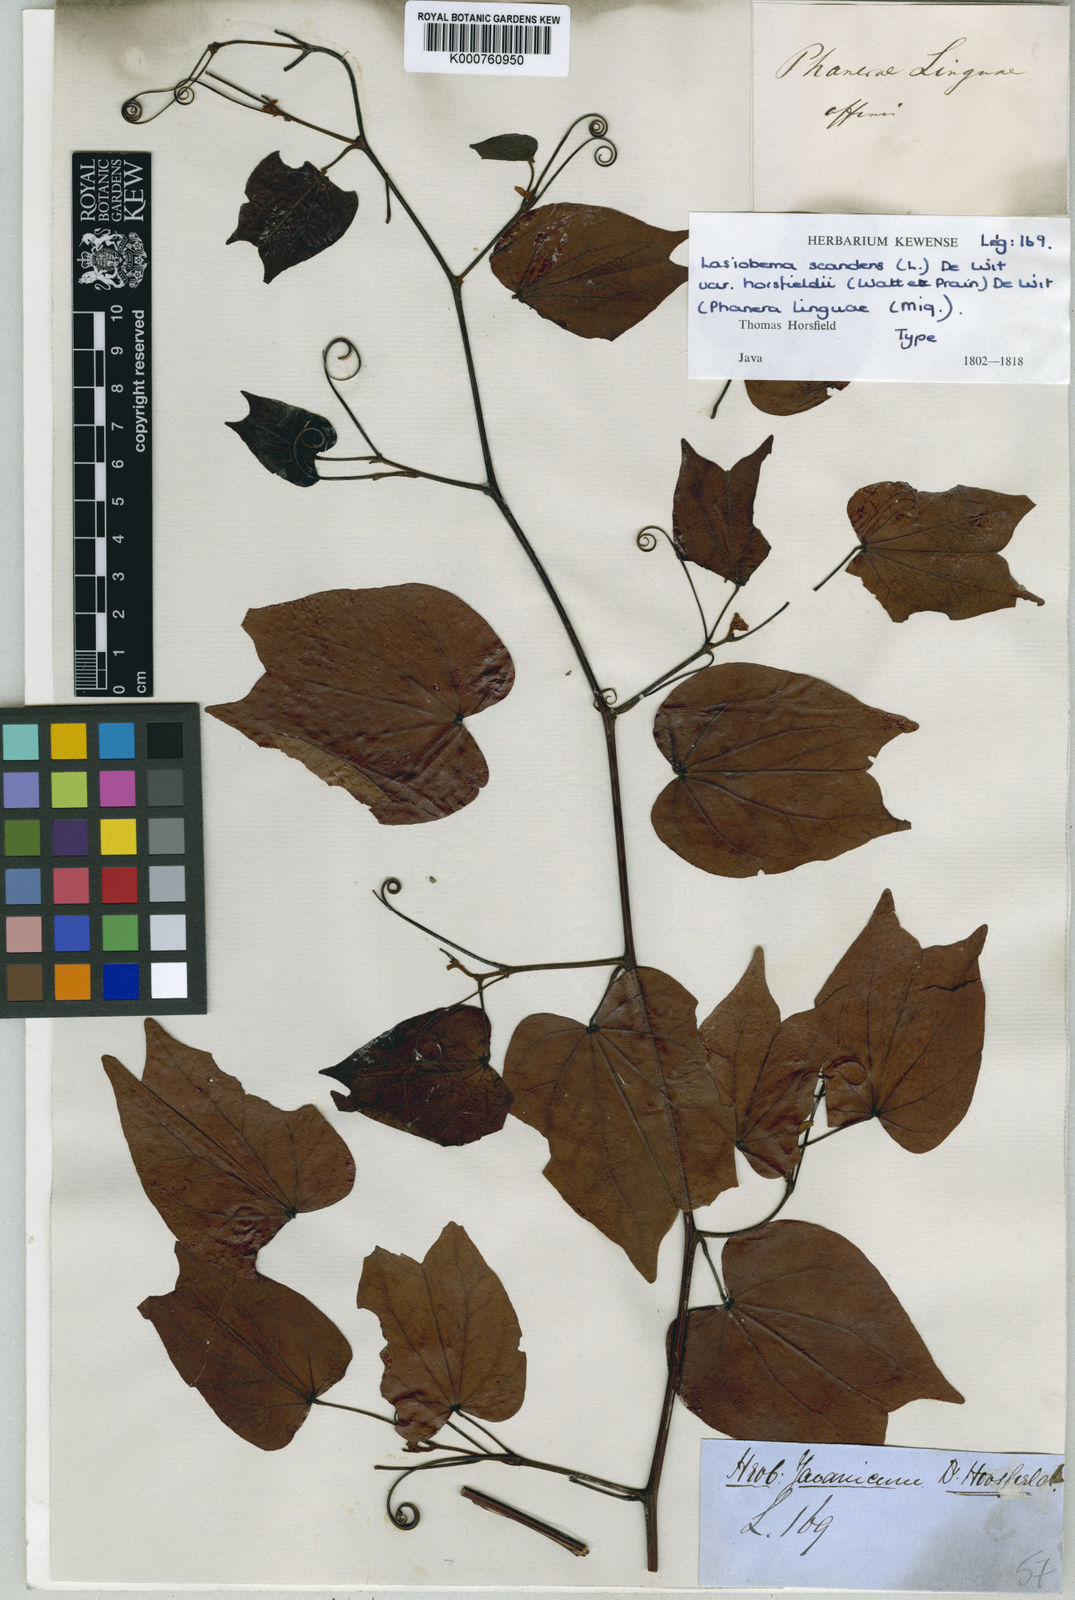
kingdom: Plantae
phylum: Tracheophyta
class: Magnoliopsida
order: Fabales
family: Fabaceae
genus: Phanera
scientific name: Phanera scandens
